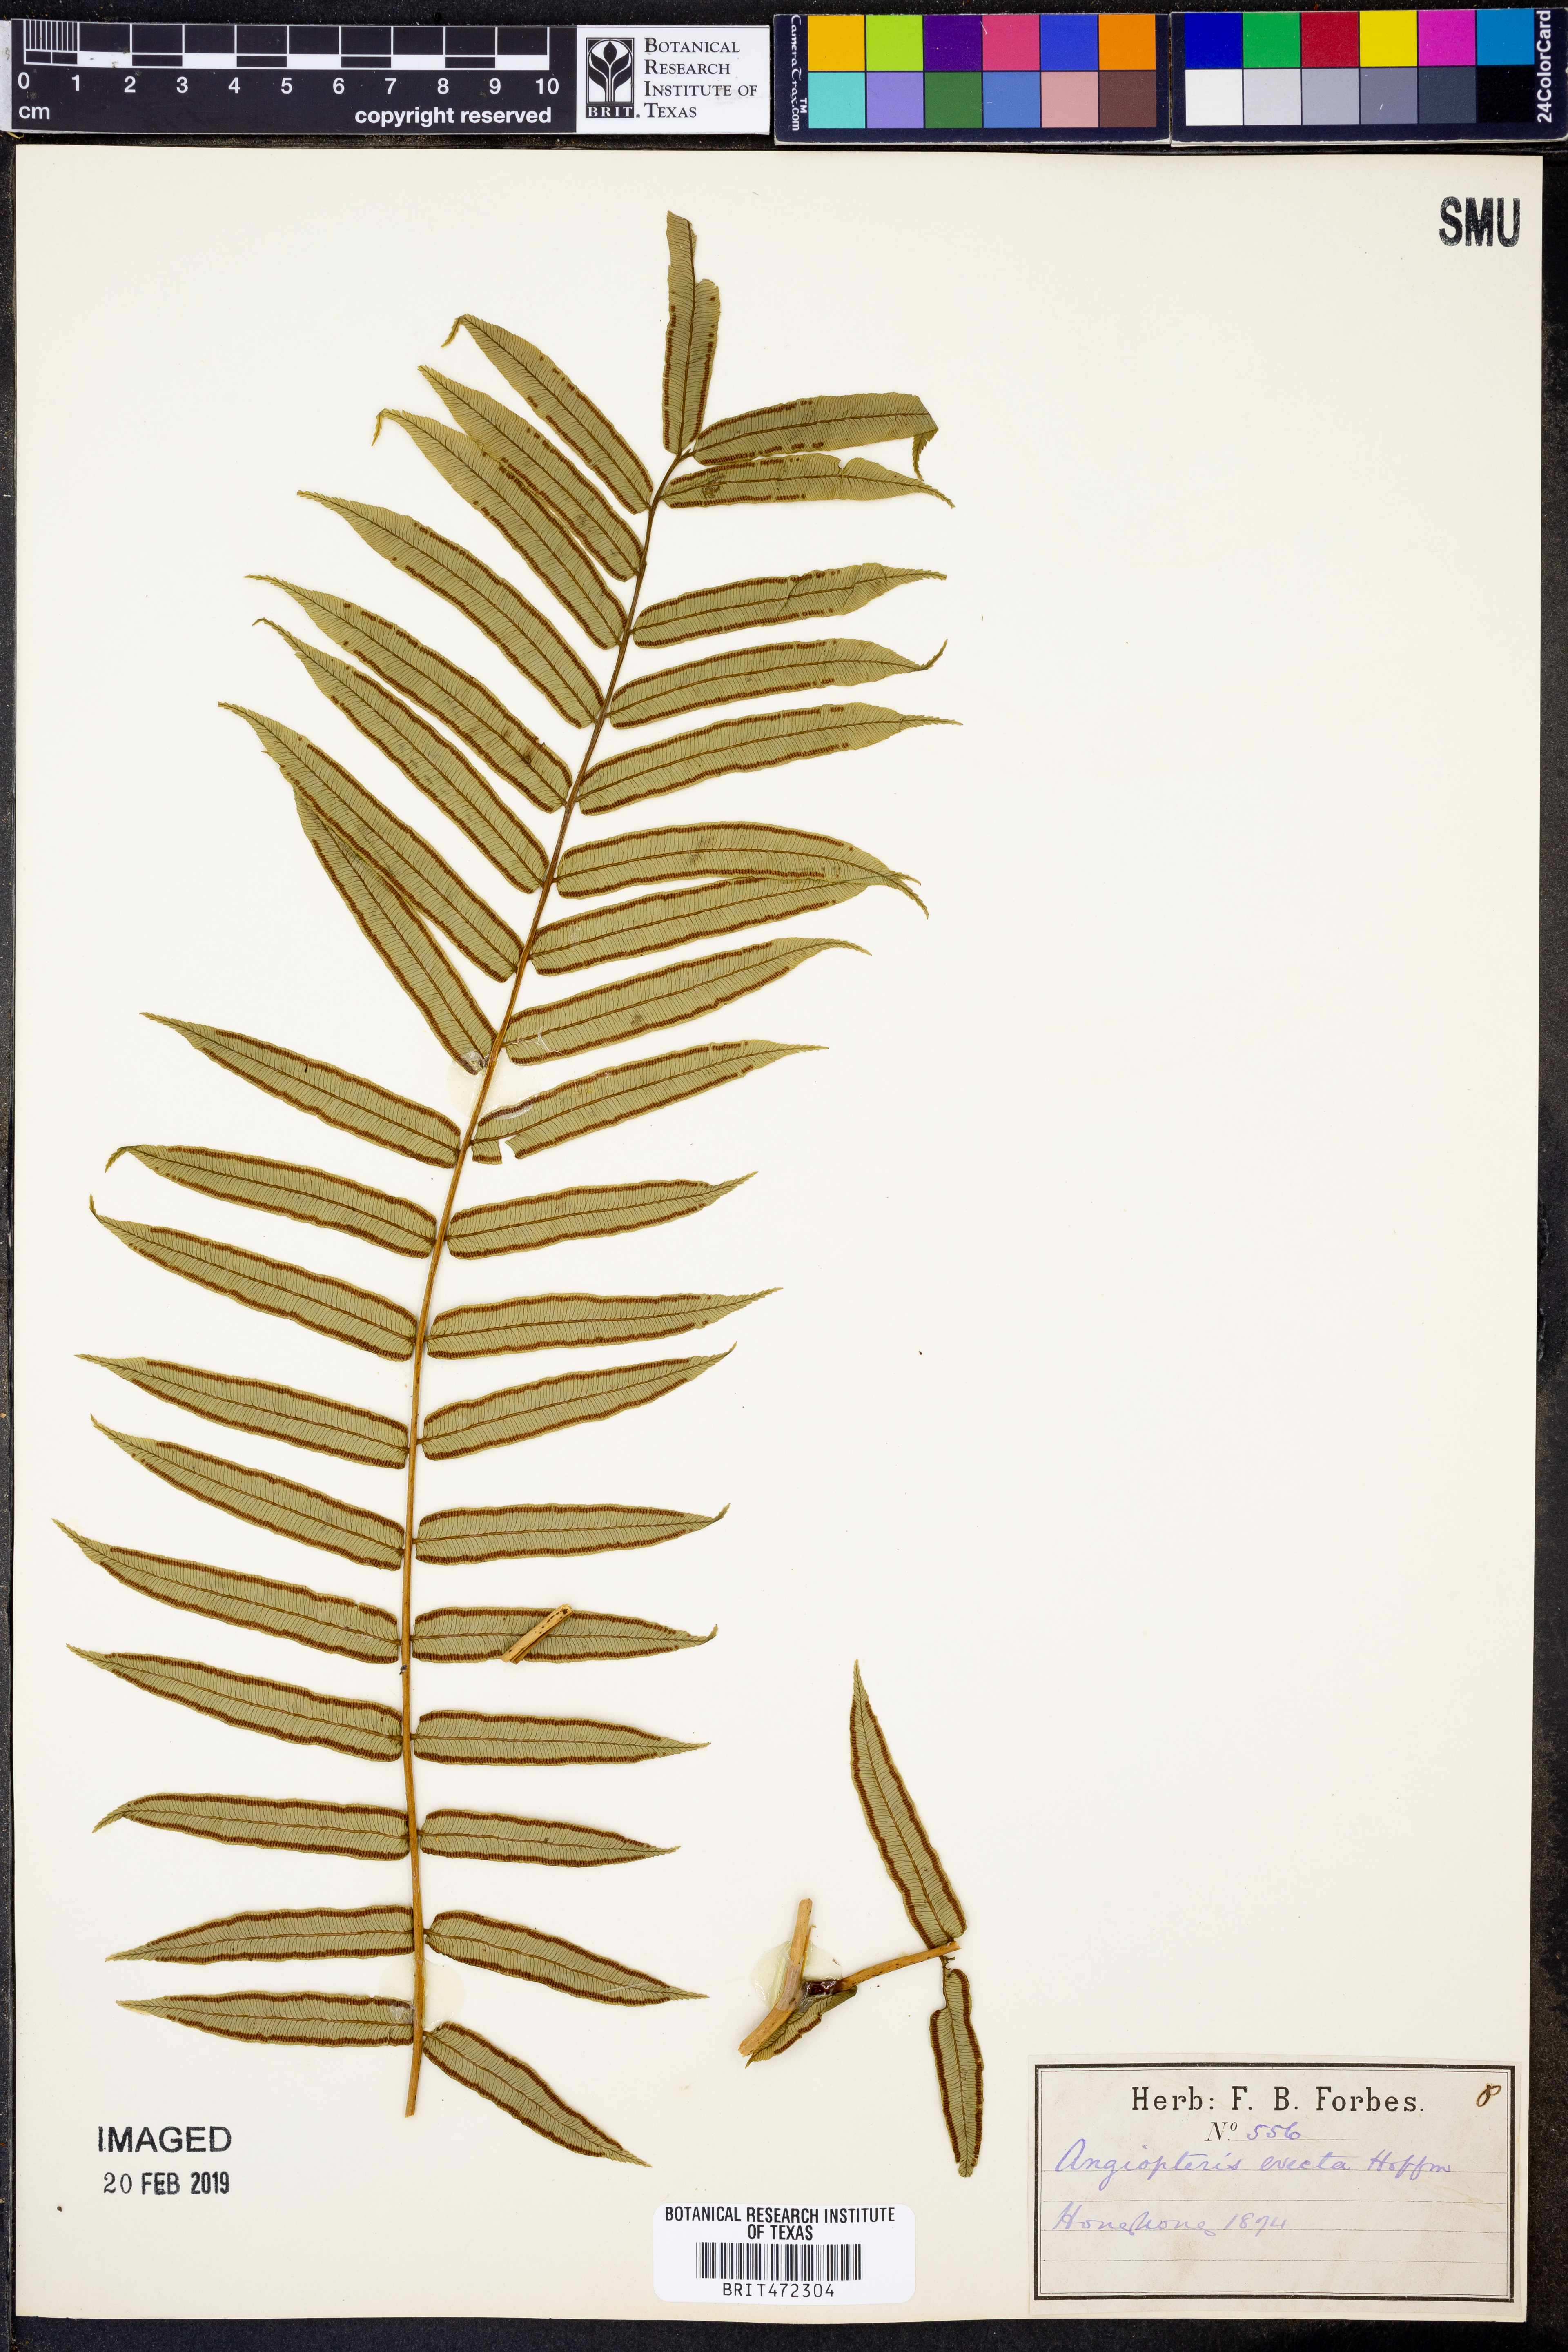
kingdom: Plantae
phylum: Tracheophyta
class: Polypodiopsida
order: Marattiales
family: Marattiaceae
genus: Angiopteris
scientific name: Angiopteris evecta
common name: Mule's-foot fern
